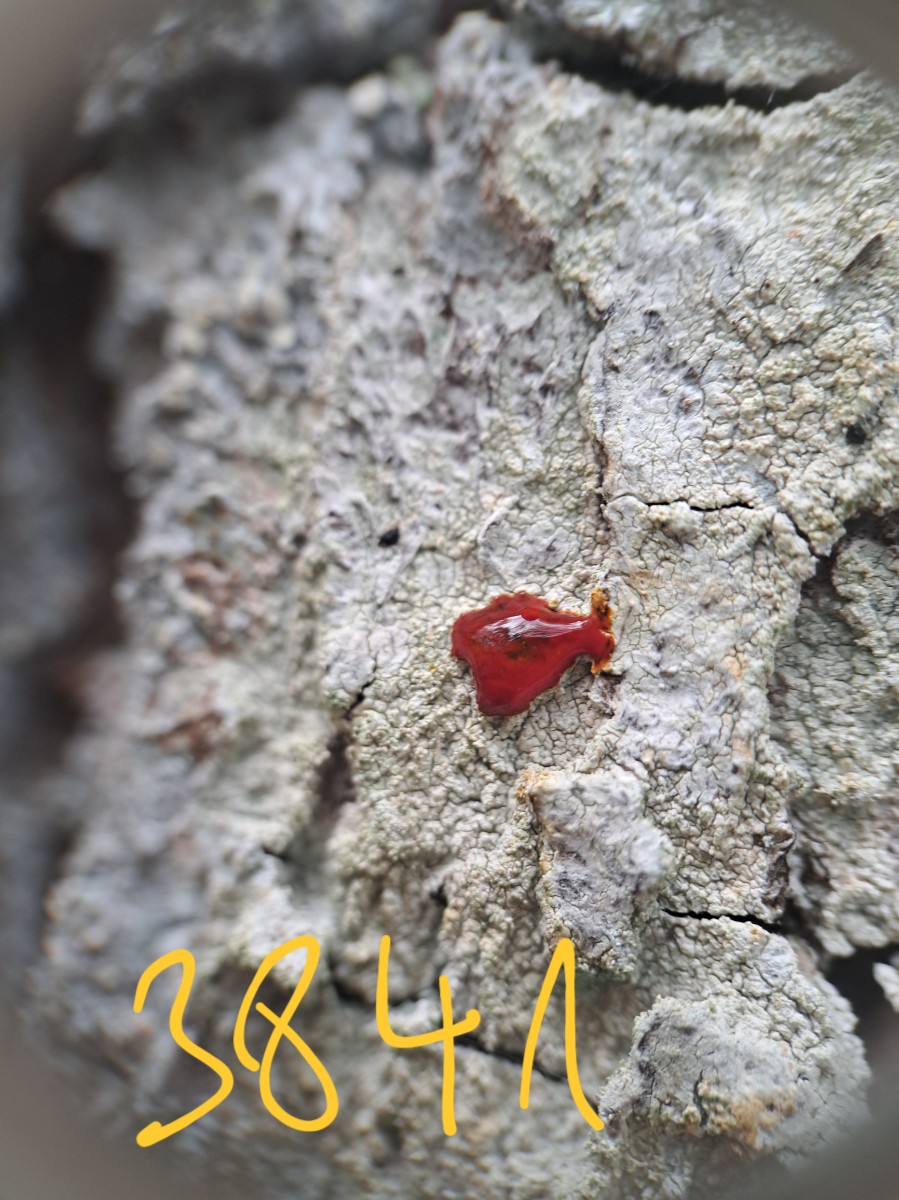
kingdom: Fungi
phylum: Ascomycota
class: Lecanoromycetes
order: Pertusariales
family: Pertusariaceae
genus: Pertusaria
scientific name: Pertusaria coccodes
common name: skurvet prikvortelav
